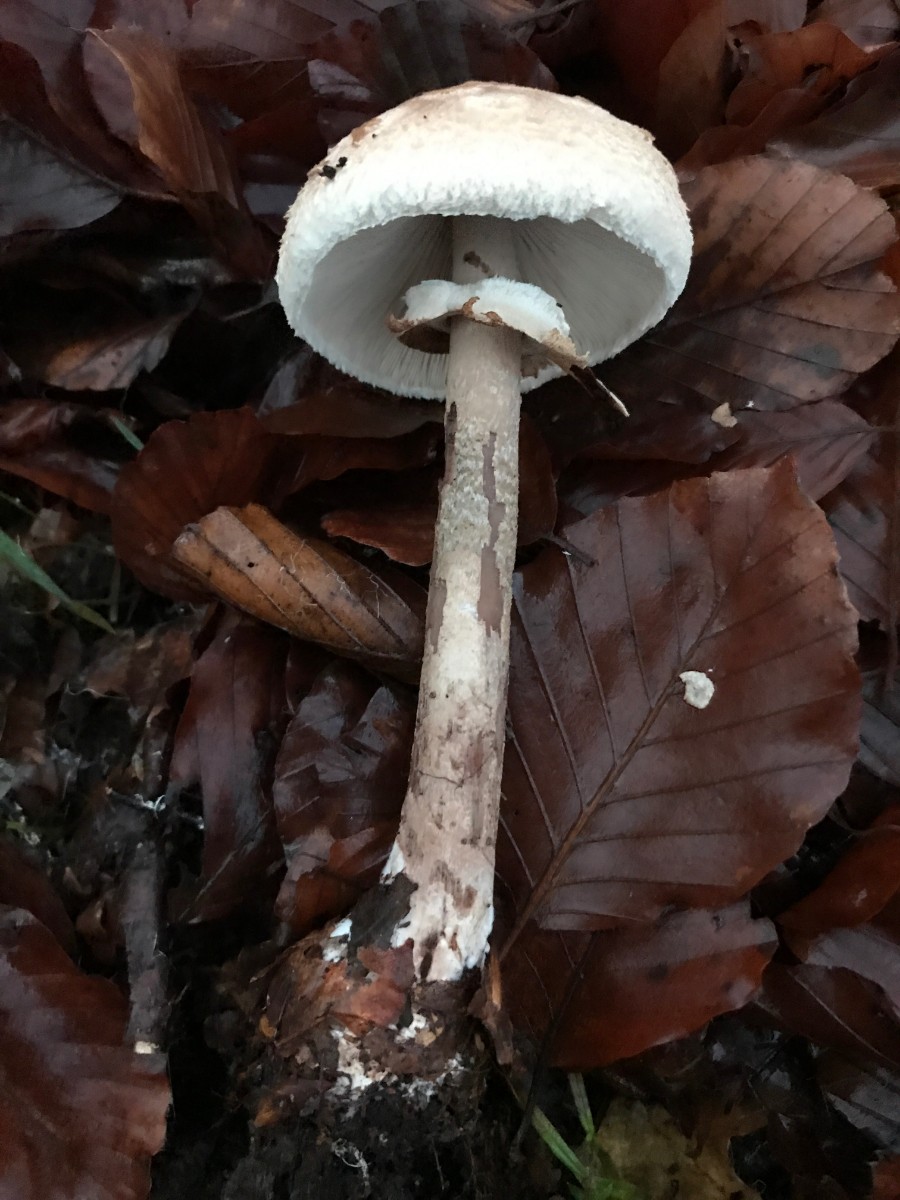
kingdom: Fungi
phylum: Basidiomycota
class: Agaricomycetes
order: Agaricales
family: Agaricaceae
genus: Macrolepiota
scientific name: Macrolepiota mastoidea
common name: puklet kæmpeparasolhat
